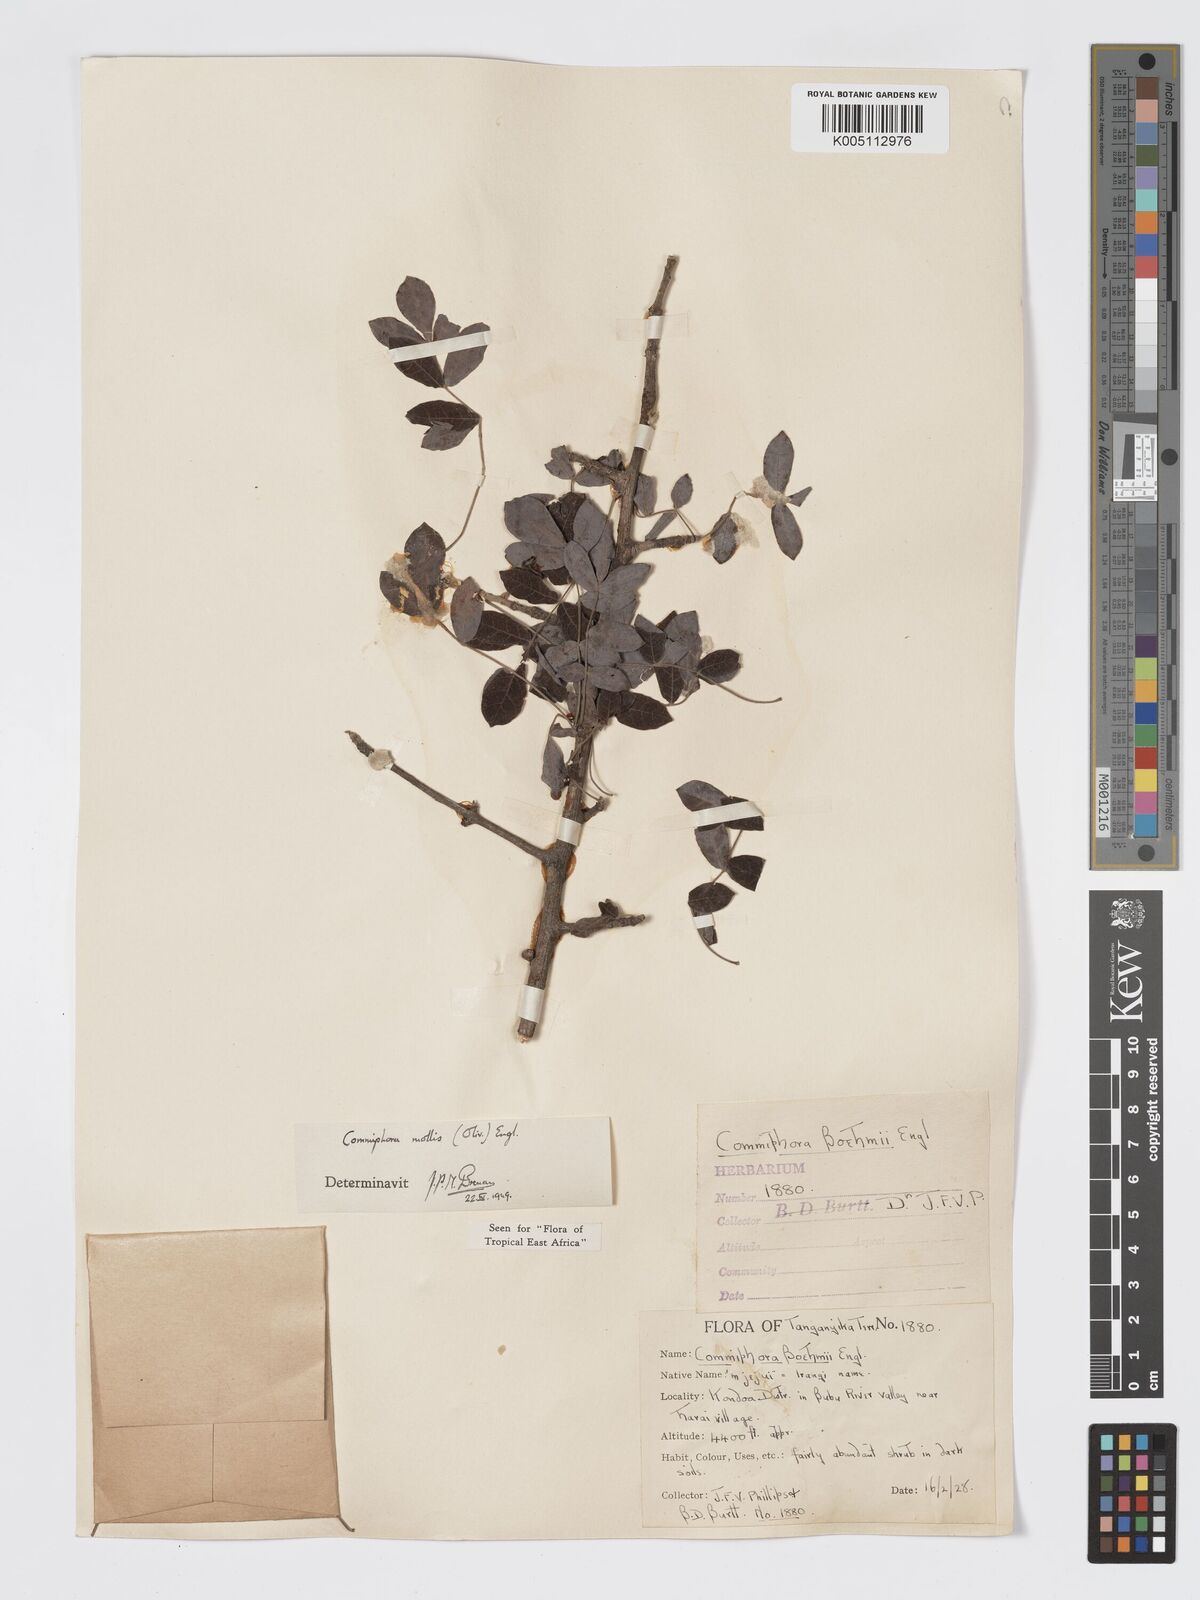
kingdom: Plantae
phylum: Tracheophyta
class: Magnoliopsida
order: Sapindales
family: Burseraceae
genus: Commiphora
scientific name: Commiphora
